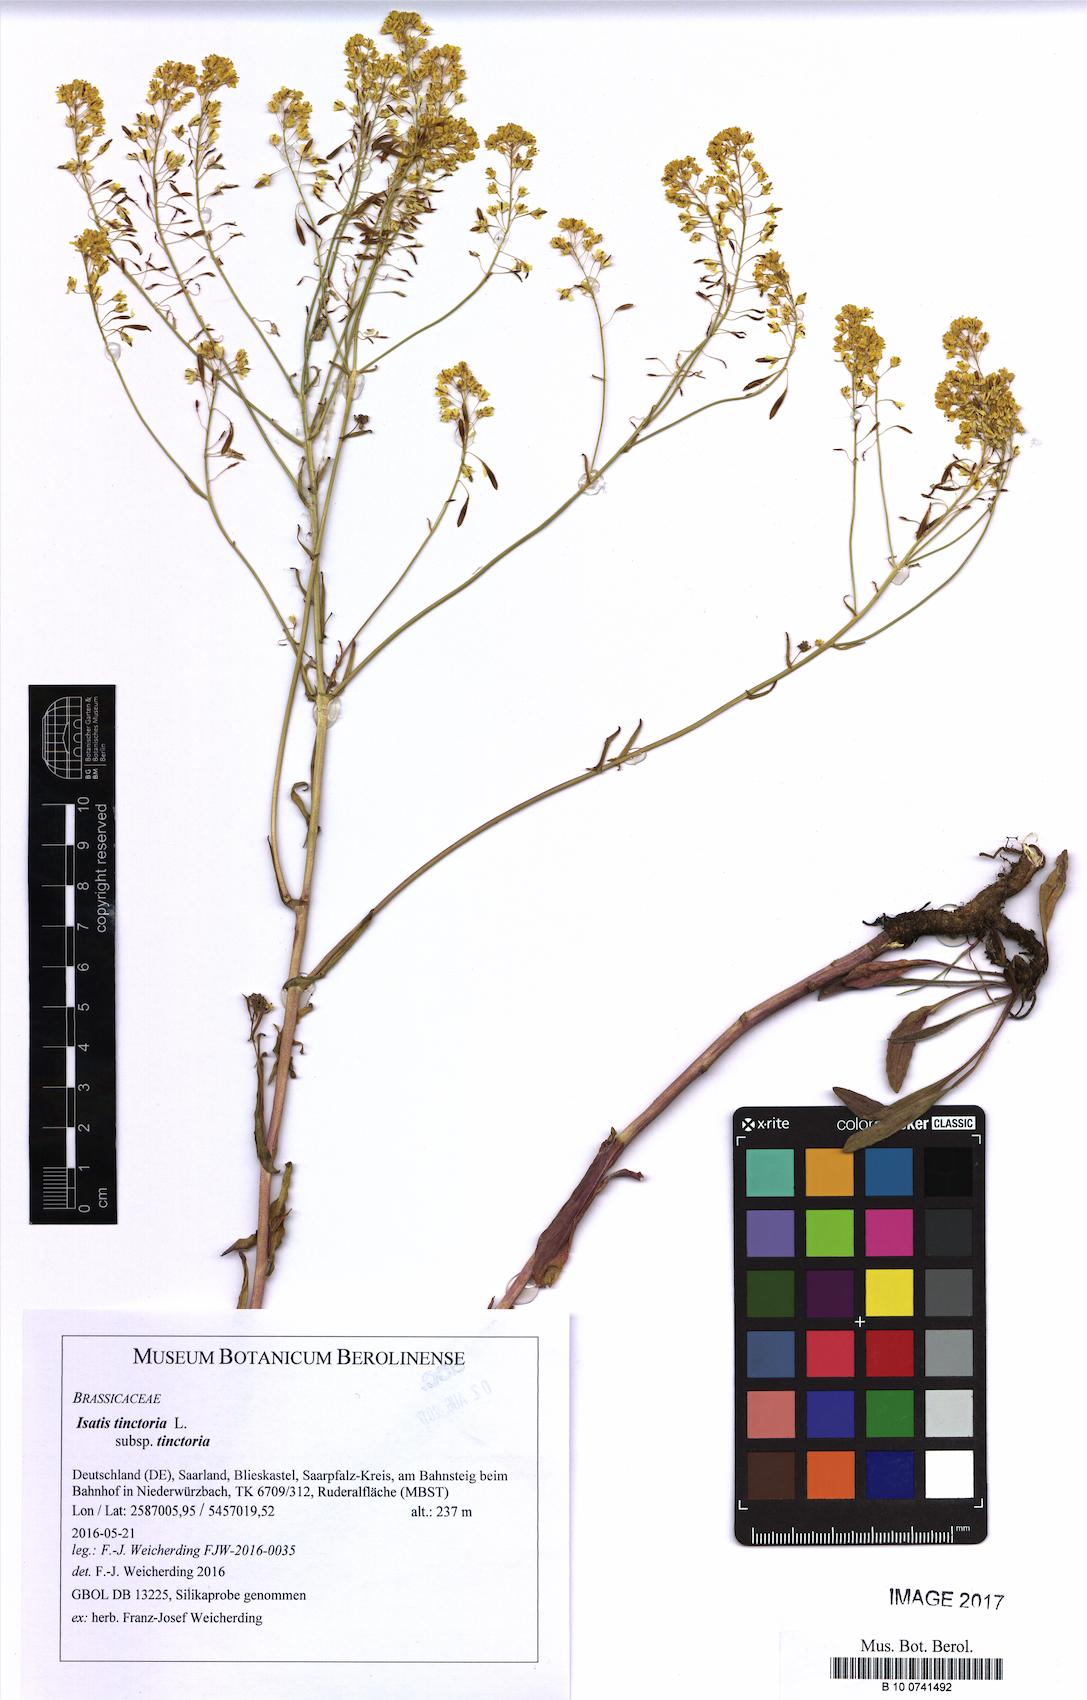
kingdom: Plantae
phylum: Tracheophyta
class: Magnoliopsida
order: Brassicales
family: Brassicaceae
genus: Isatis
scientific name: Isatis tinctoria
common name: Woad
